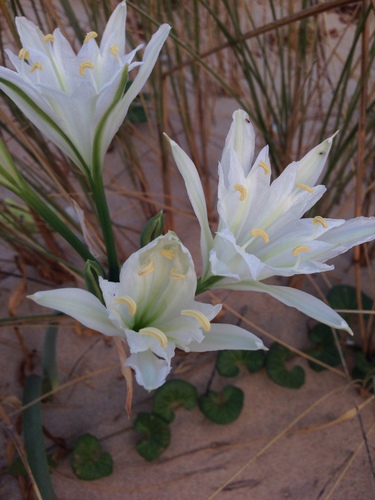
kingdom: Plantae
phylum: Tracheophyta
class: Liliopsida
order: Asparagales
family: Amaryllidaceae
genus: Pancratium
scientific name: Pancratium maritimum
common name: Sea-daffodil
